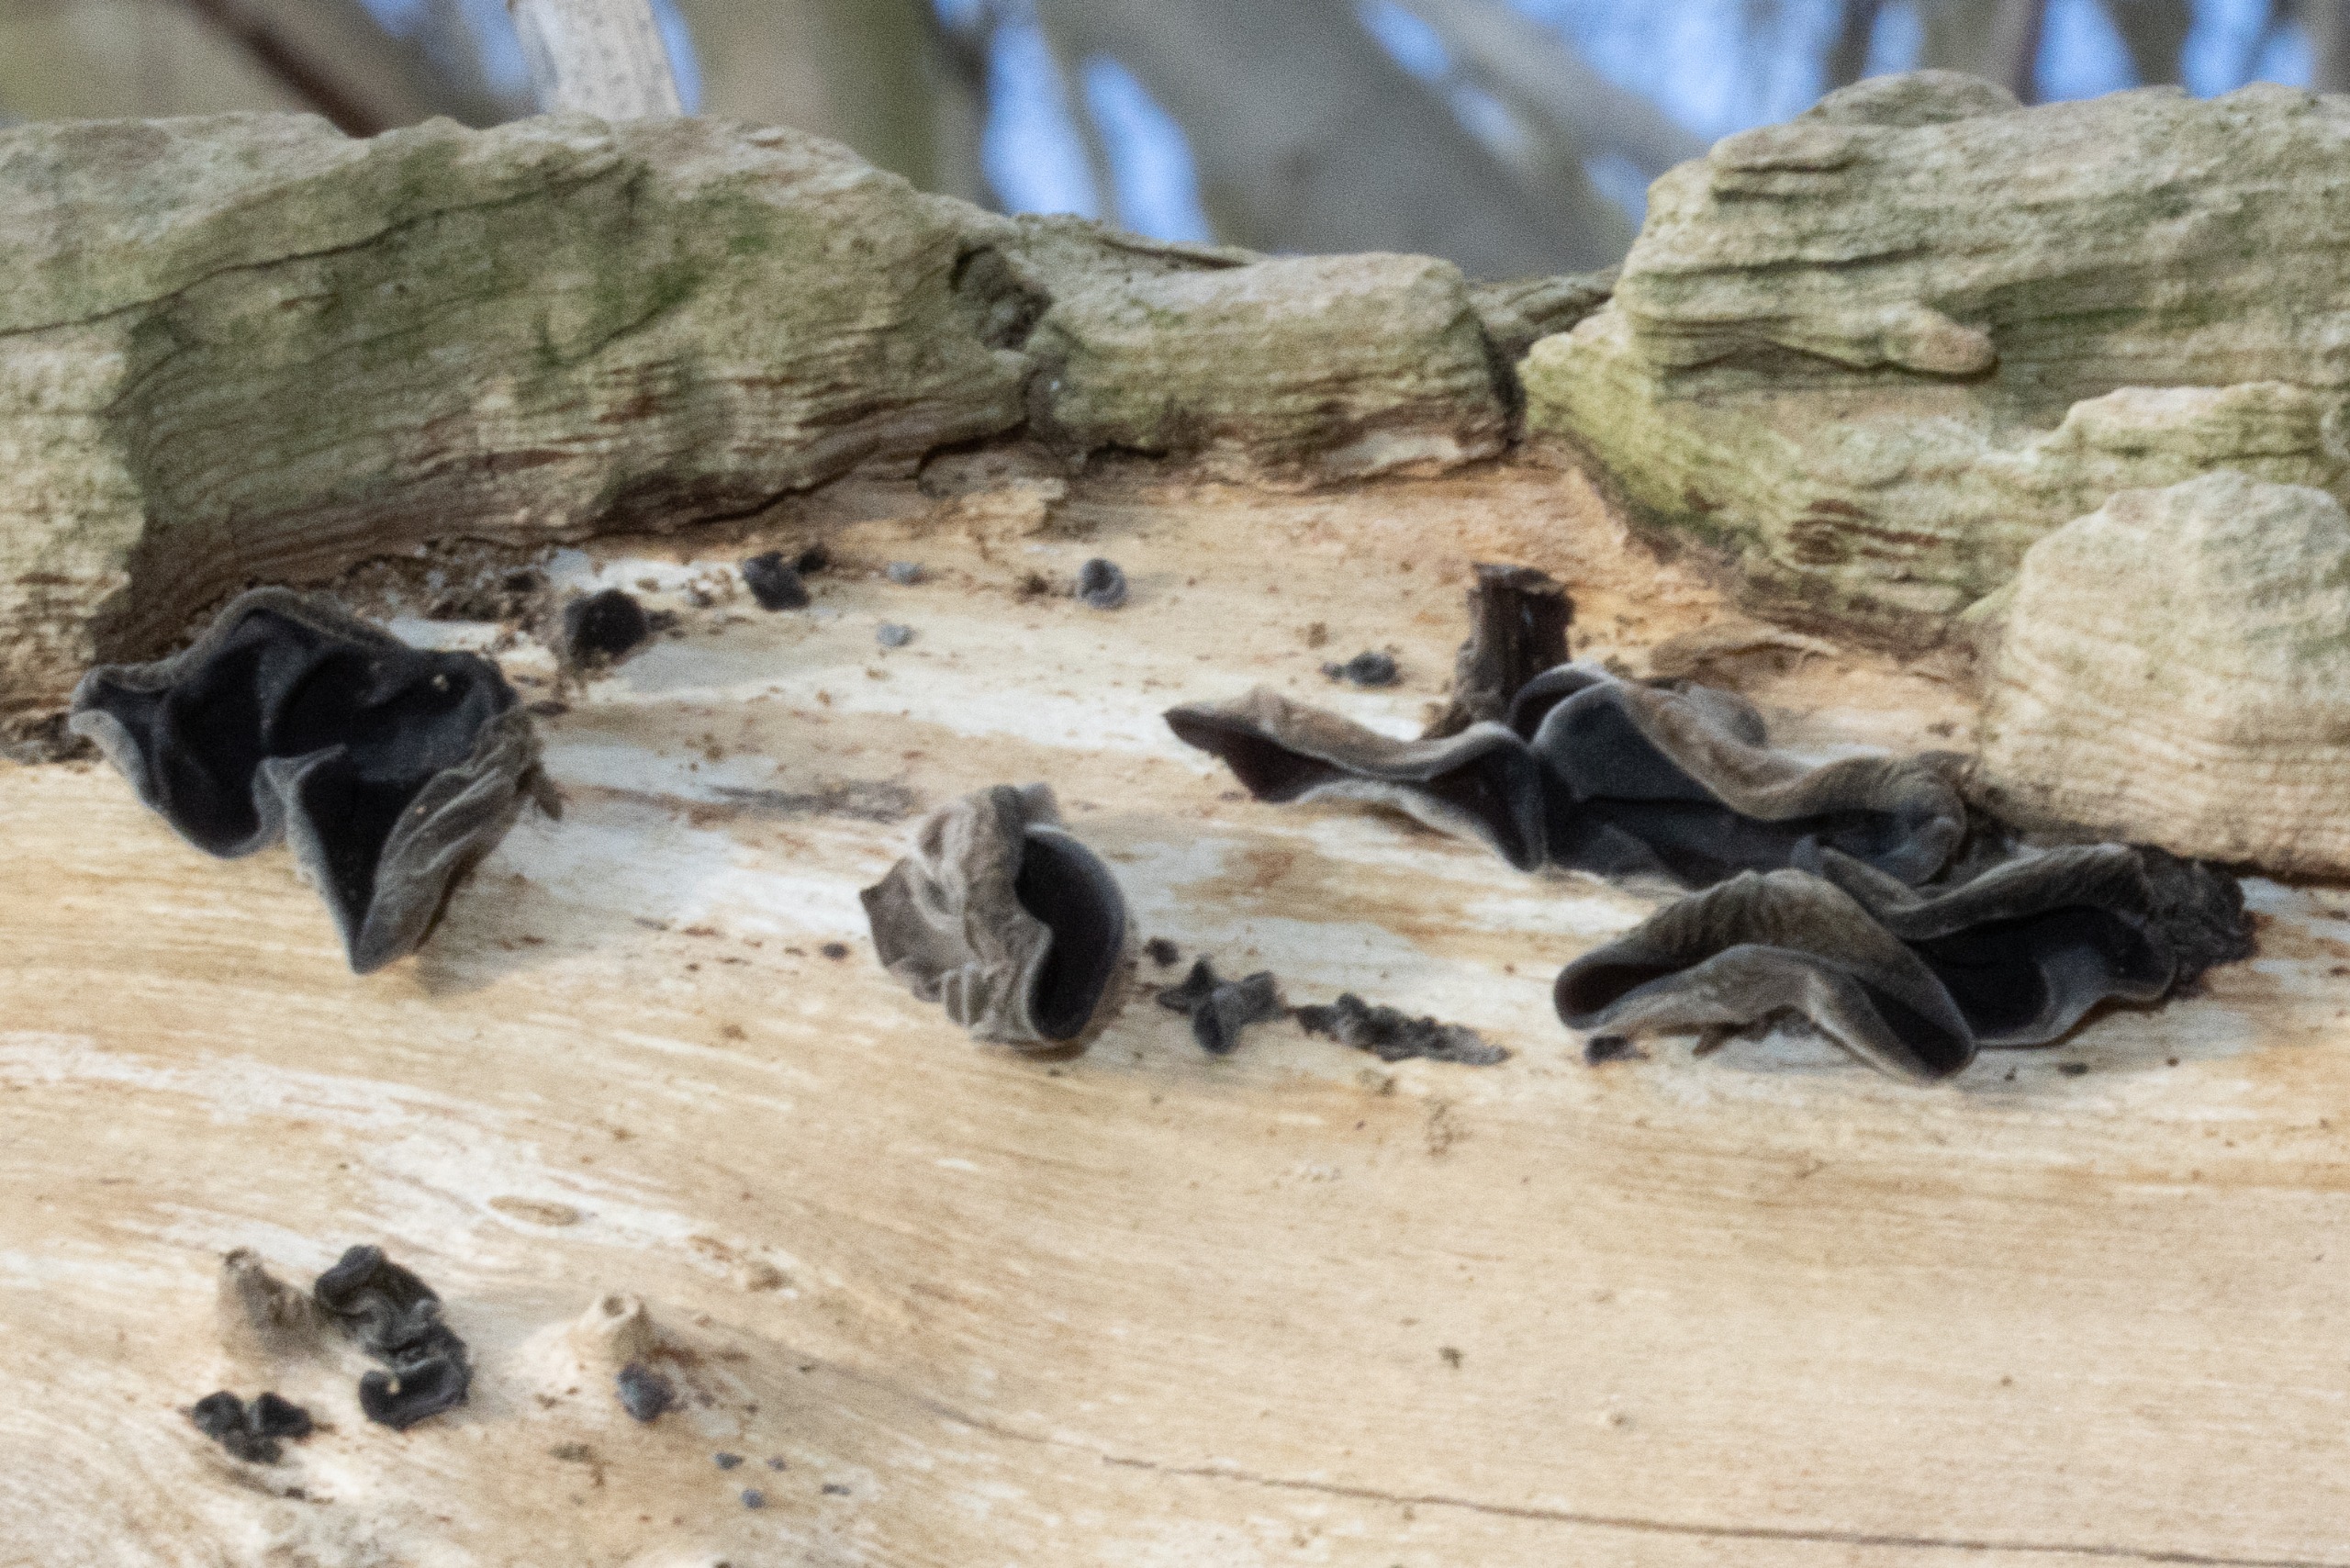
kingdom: Fungi
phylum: Basidiomycota
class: Agaricomycetes
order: Auriculariales
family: Auriculariaceae
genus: Auricularia
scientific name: Auricularia auricula-judae
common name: Almindelig judasøre
